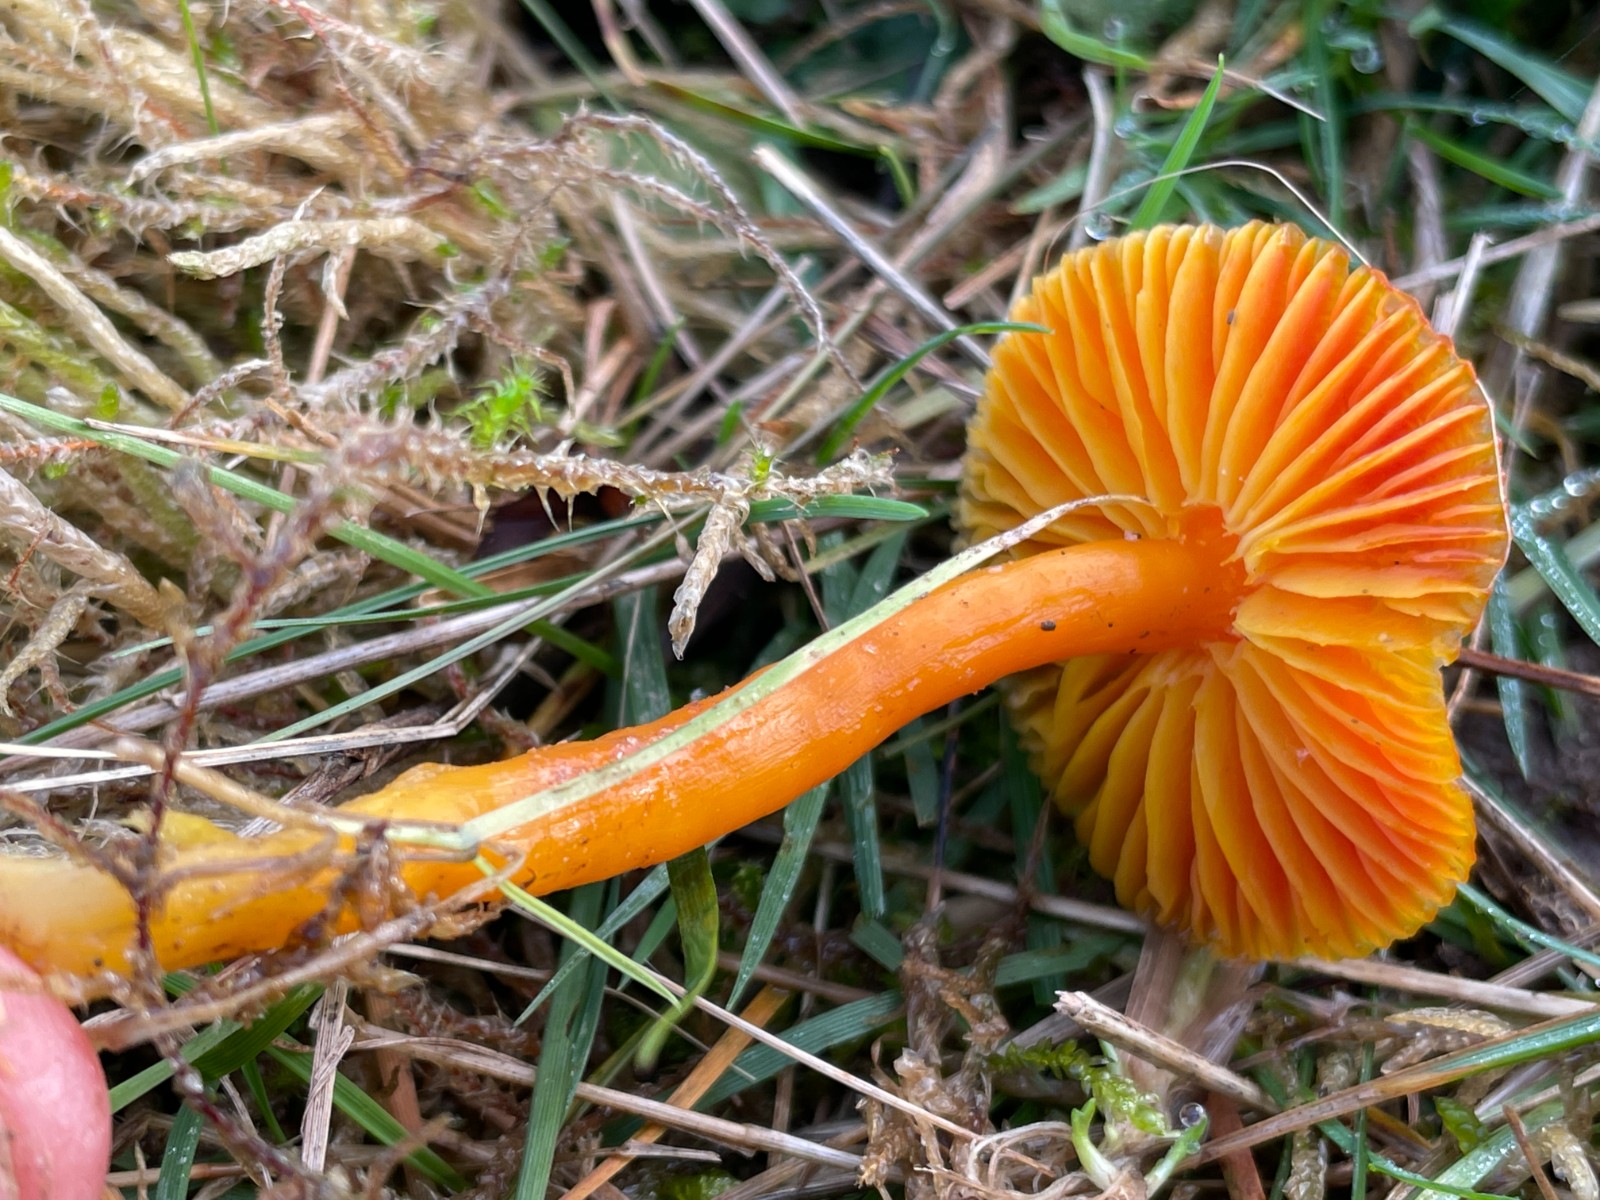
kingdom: Fungi
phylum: Basidiomycota
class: Agaricomycetes
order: Agaricales
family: Hygrophoraceae
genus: Hygrocybe
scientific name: Hygrocybe coccinea
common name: cinnober-vokshat
